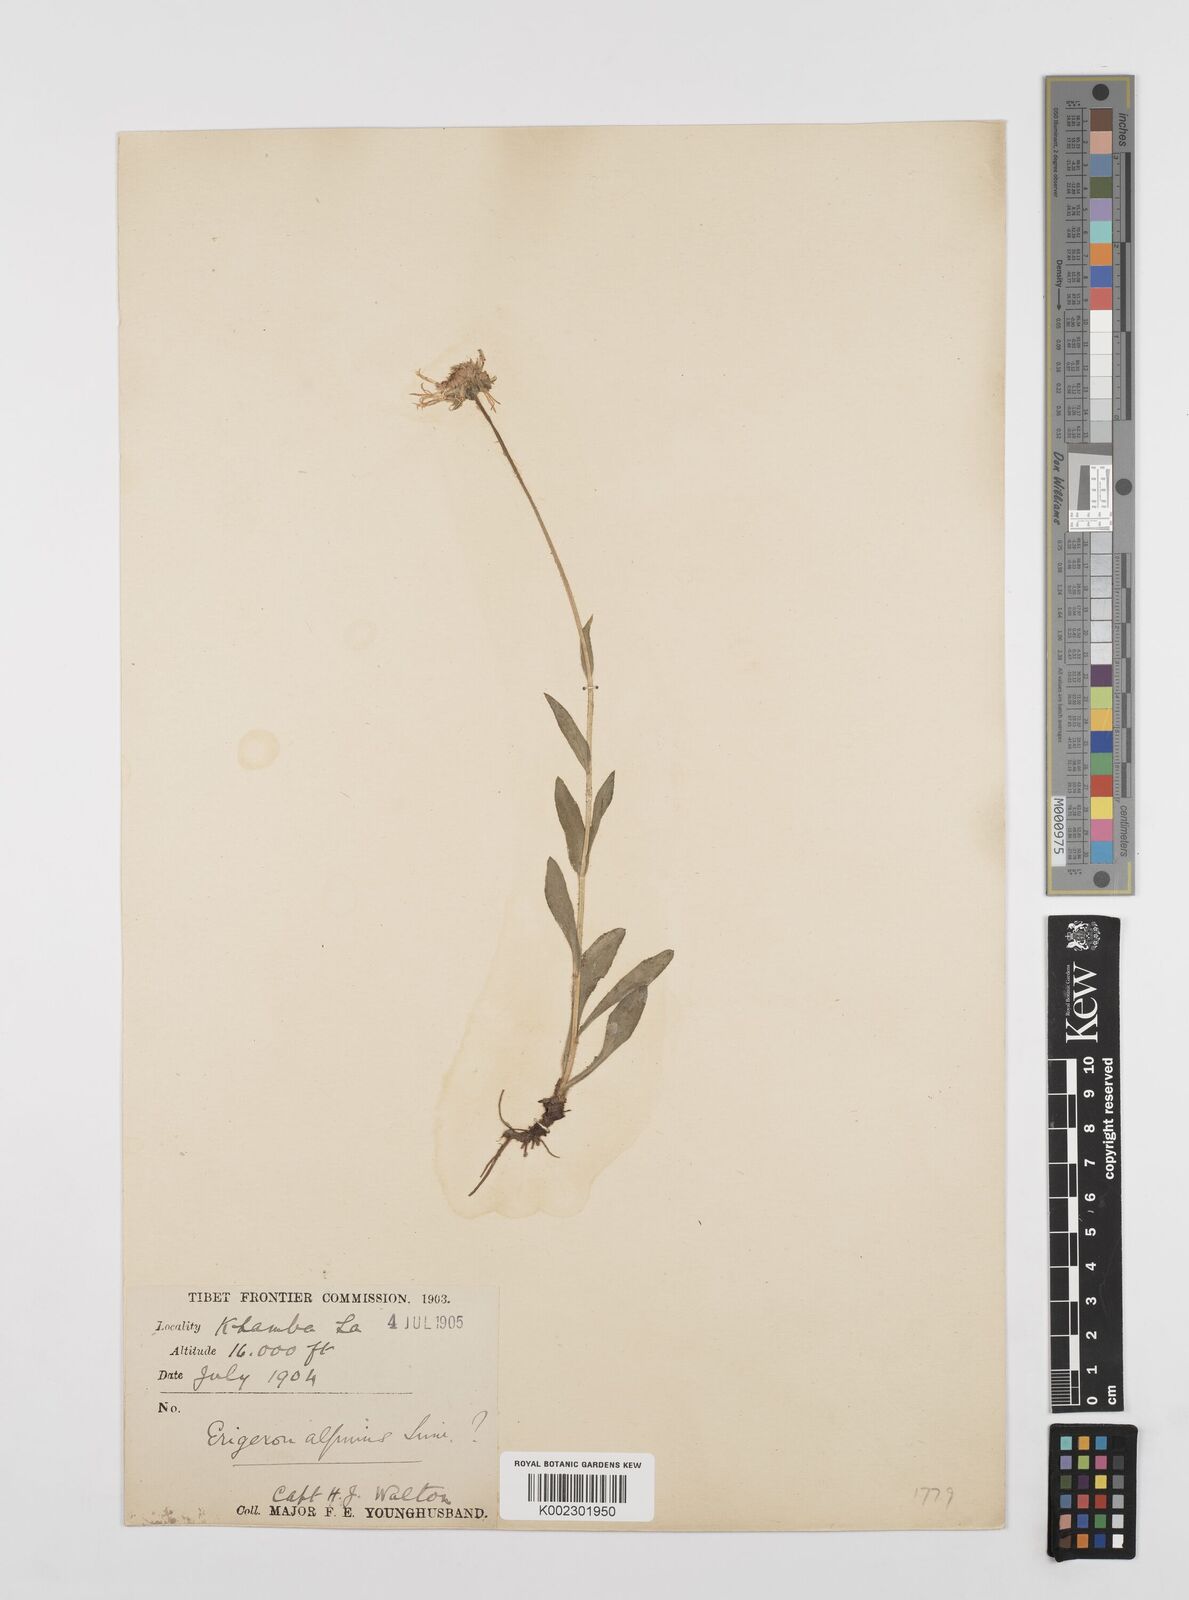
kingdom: Plantae
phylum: Tracheophyta
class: Magnoliopsida
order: Asterales
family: Asteraceae
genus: Erigeron
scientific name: Erigeron alpinus
